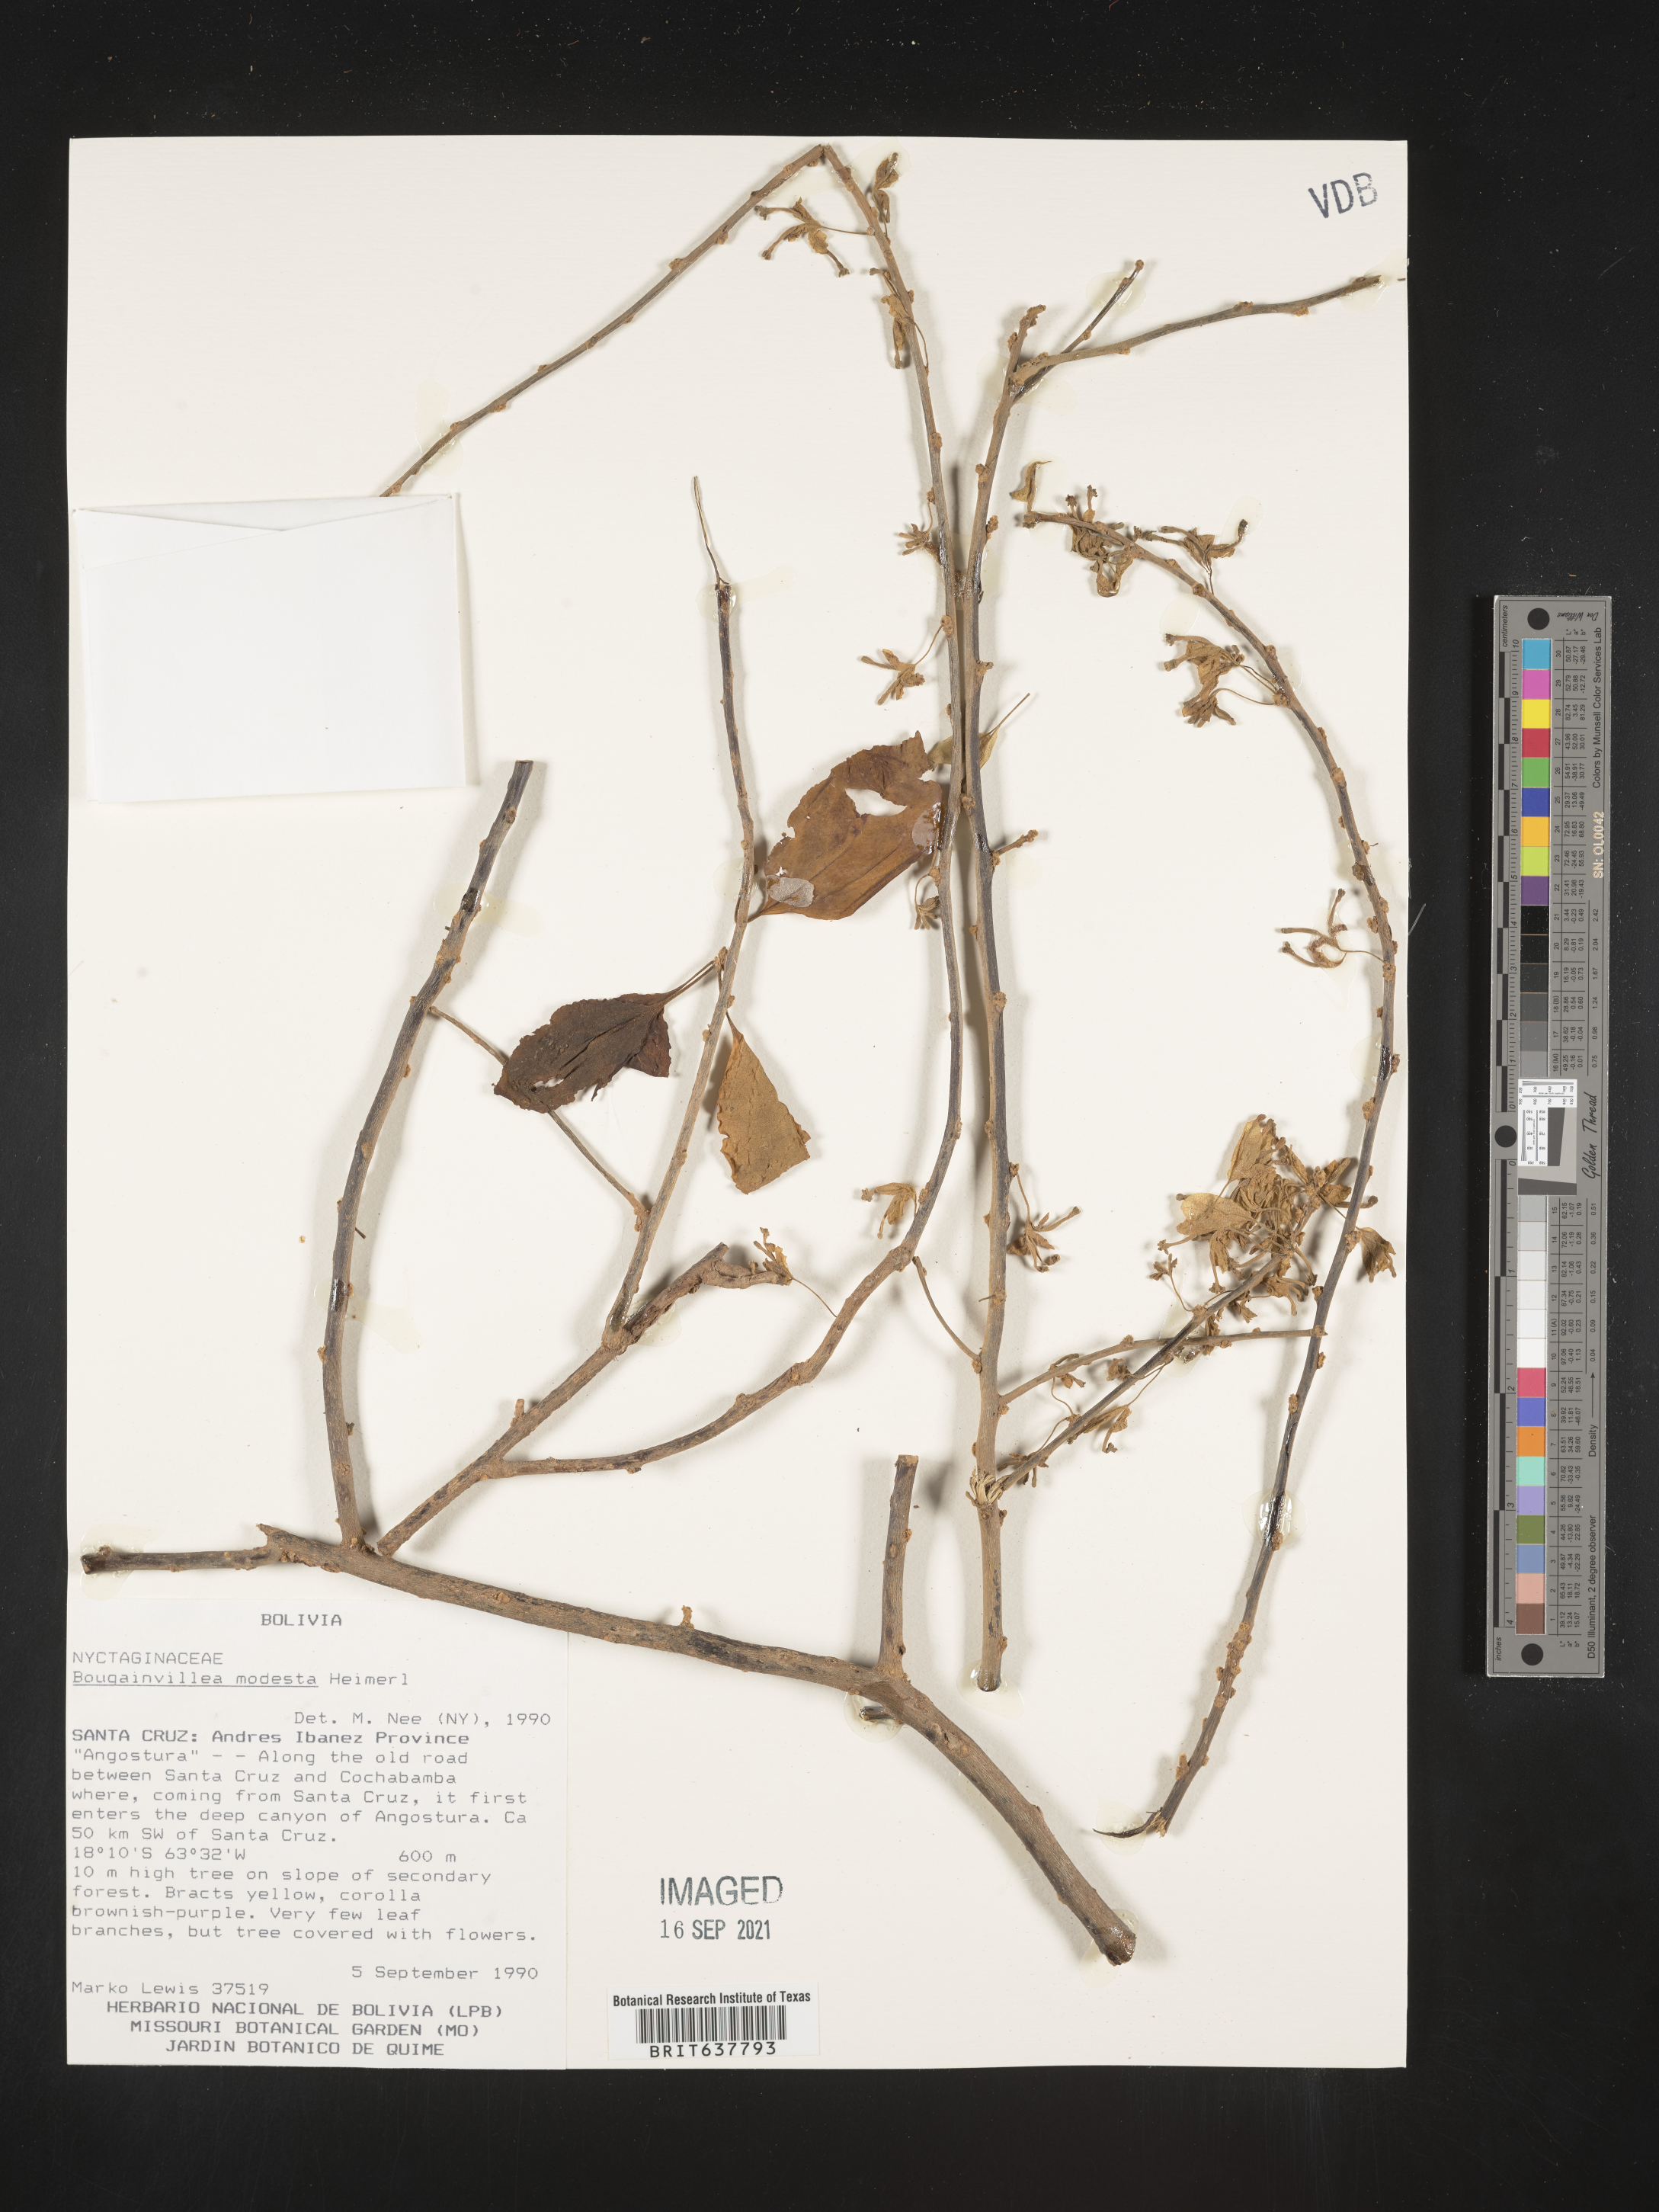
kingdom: Plantae
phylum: Tracheophyta
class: Magnoliopsida
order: Caryophyllales
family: Nyctaginaceae
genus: Bougainvillea
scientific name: Bougainvillea
